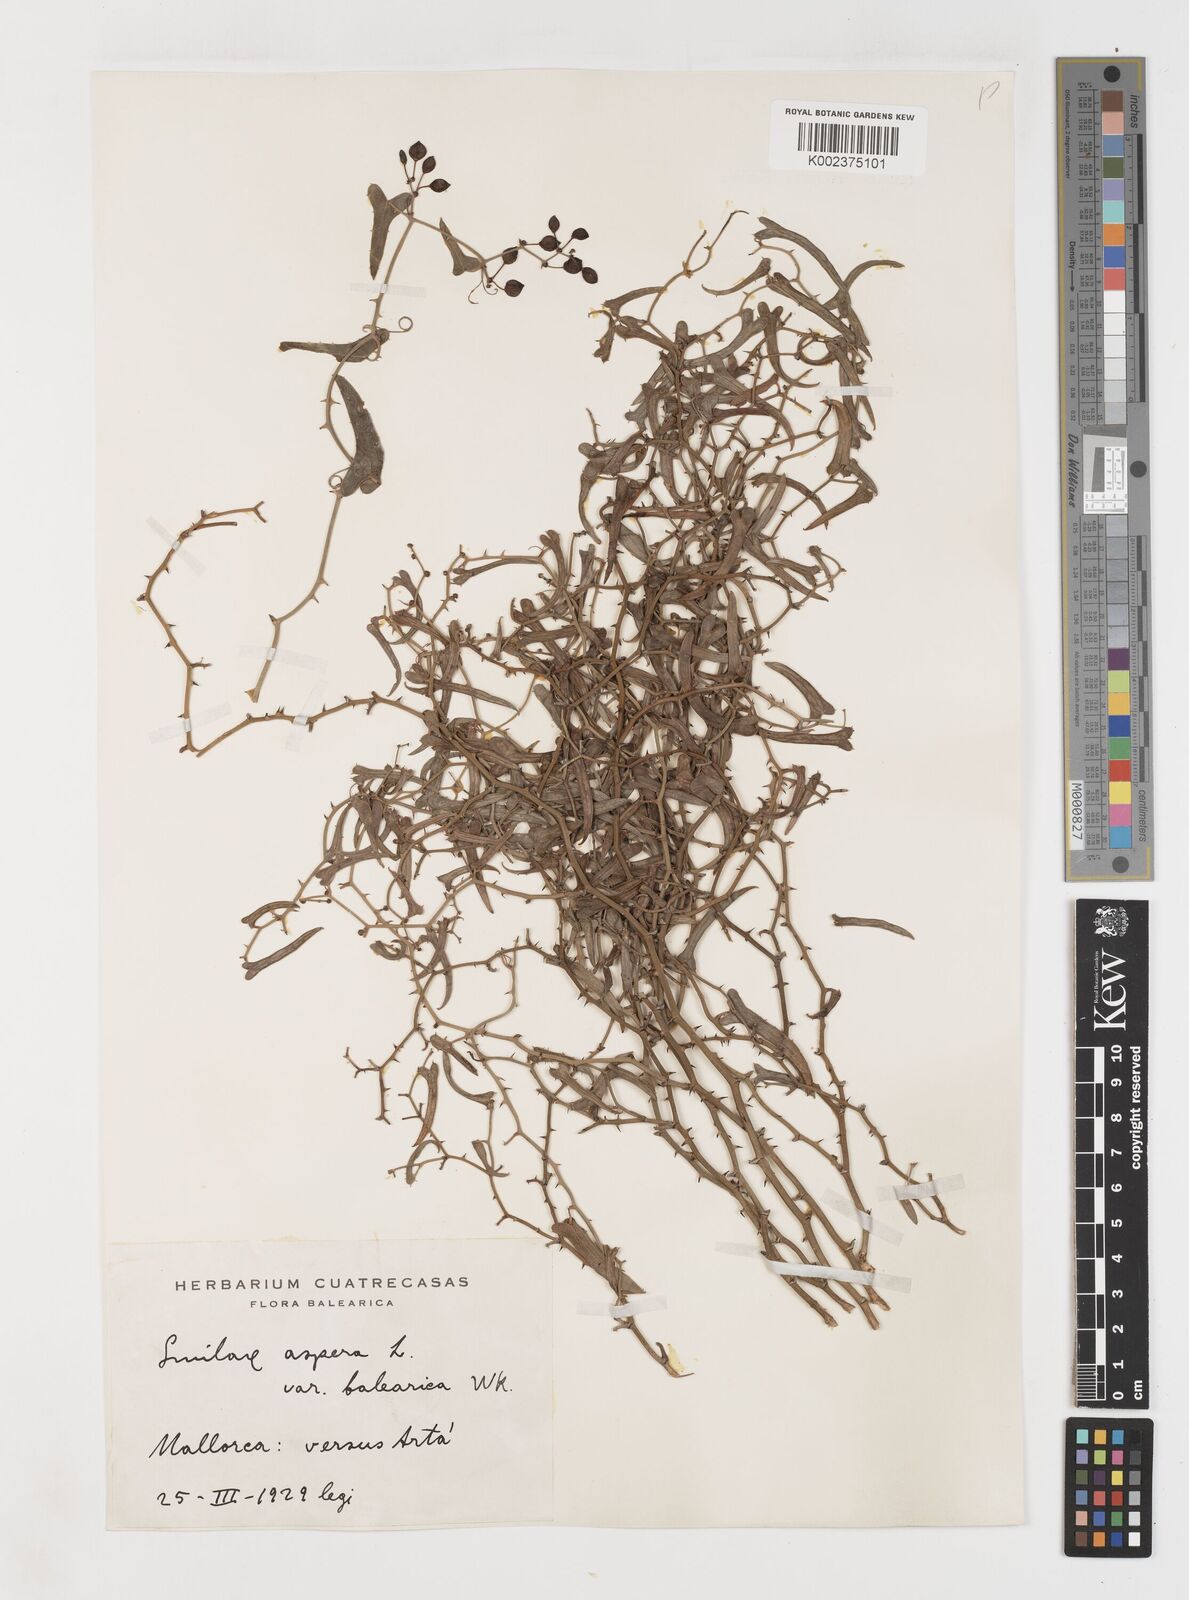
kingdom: Plantae
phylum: Tracheophyta
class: Liliopsida
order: Liliales
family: Smilacaceae
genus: Smilax
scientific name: Smilax aspera
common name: Common smilax
